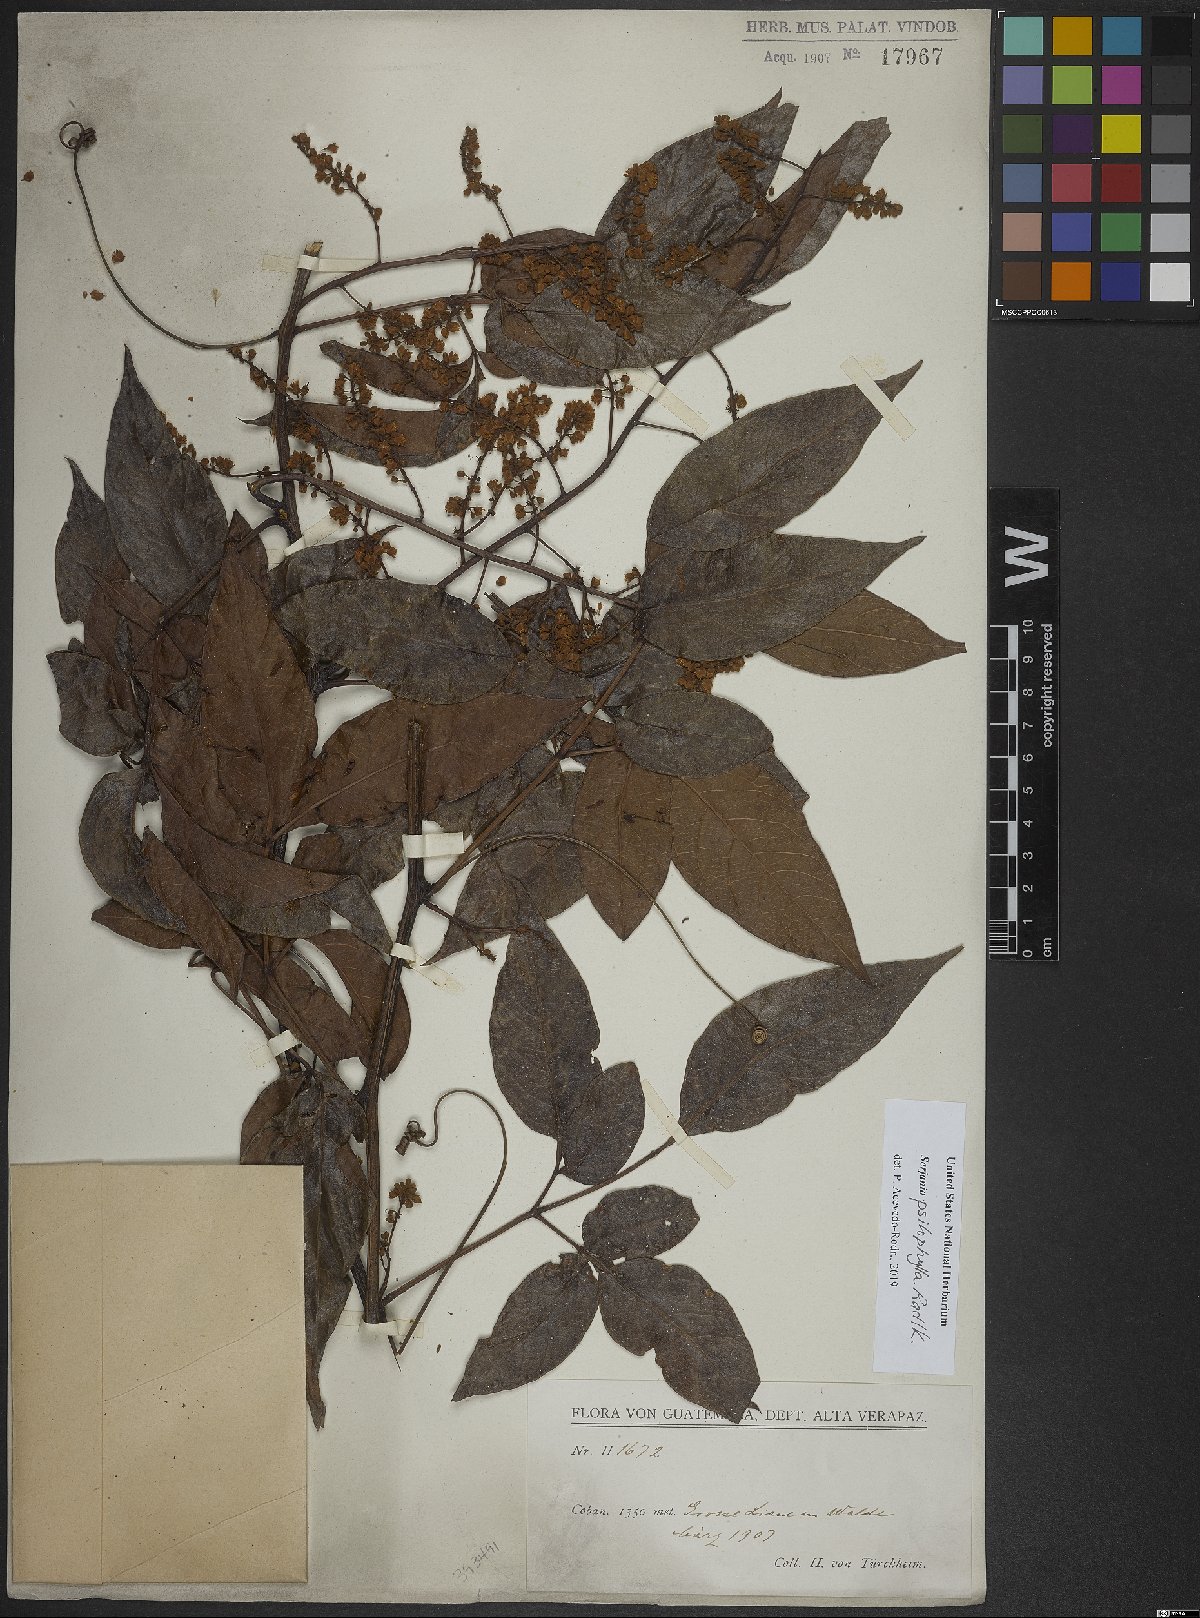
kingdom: Plantae
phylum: Tracheophyta
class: Magnoliopsida
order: Sapindales
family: Sapindaceae
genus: Serjania
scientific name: Serjania psilophylla
